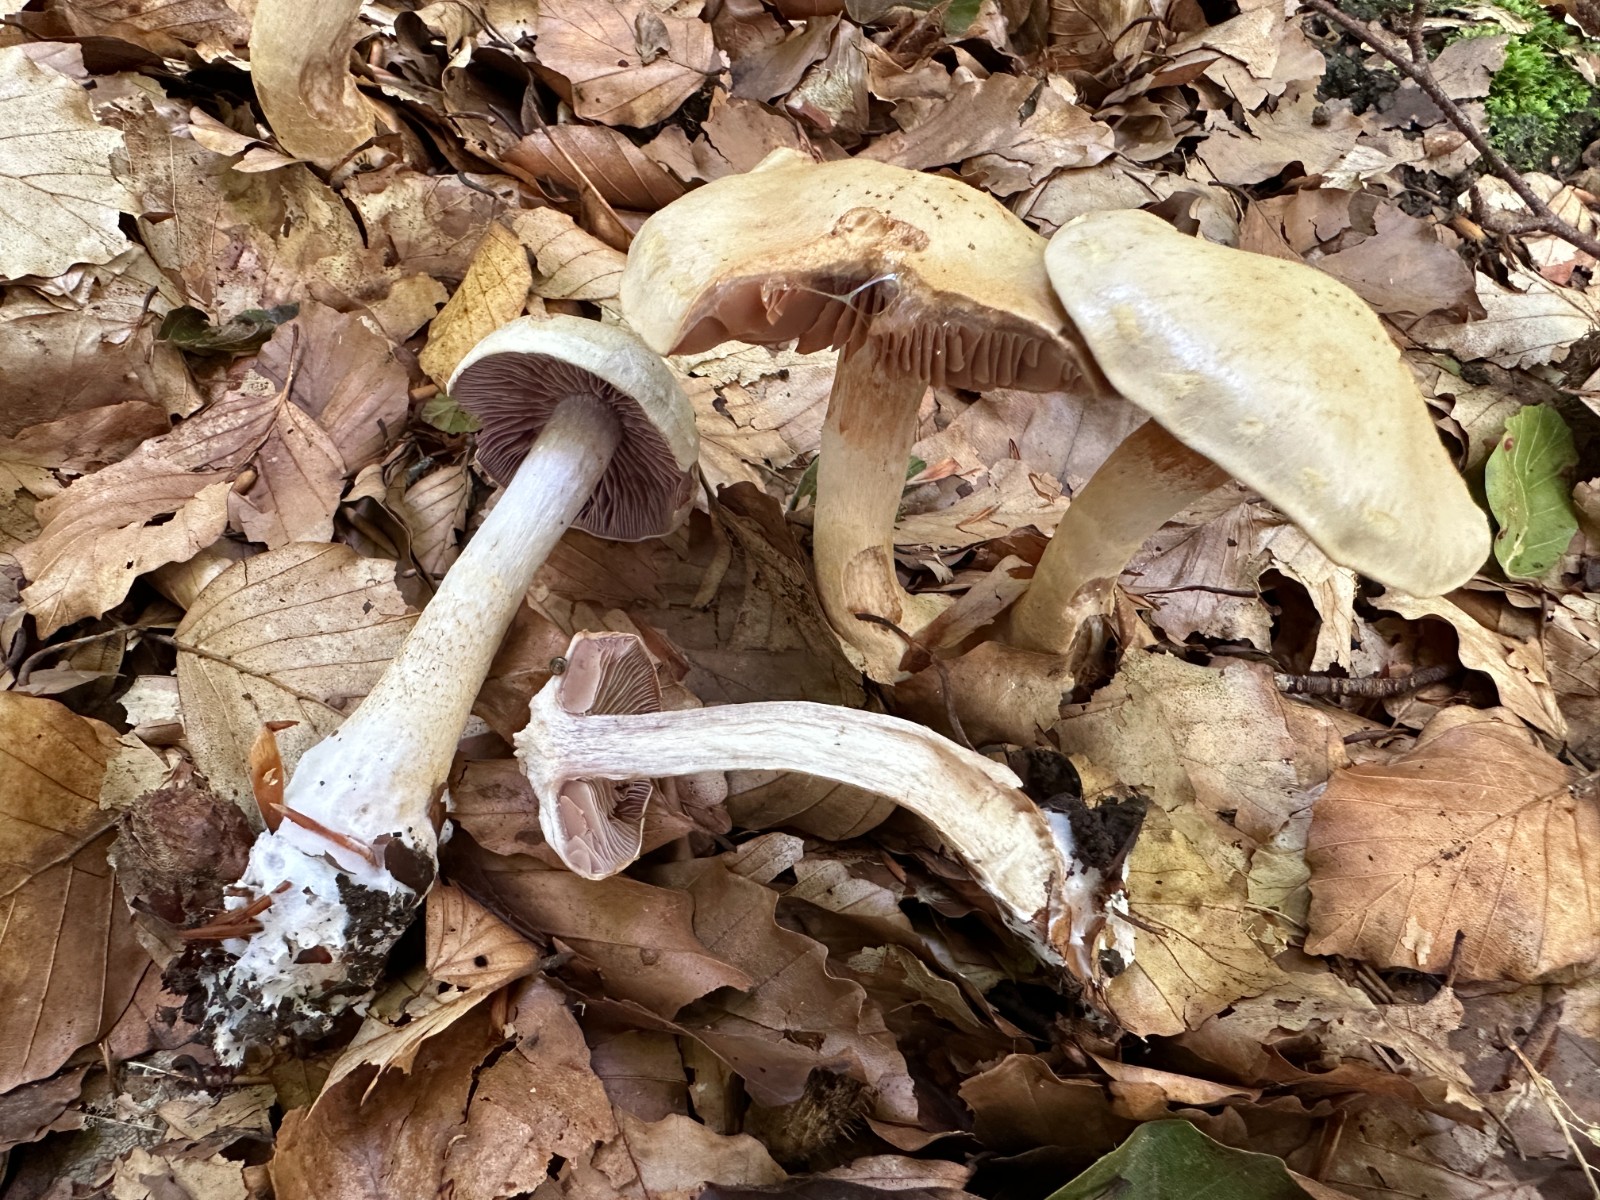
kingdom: Fungi
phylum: Basidiomycota
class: Agaricomycetes
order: Agaricales
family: Cortinariaceae
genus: Cortinarius
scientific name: Cortinarius
